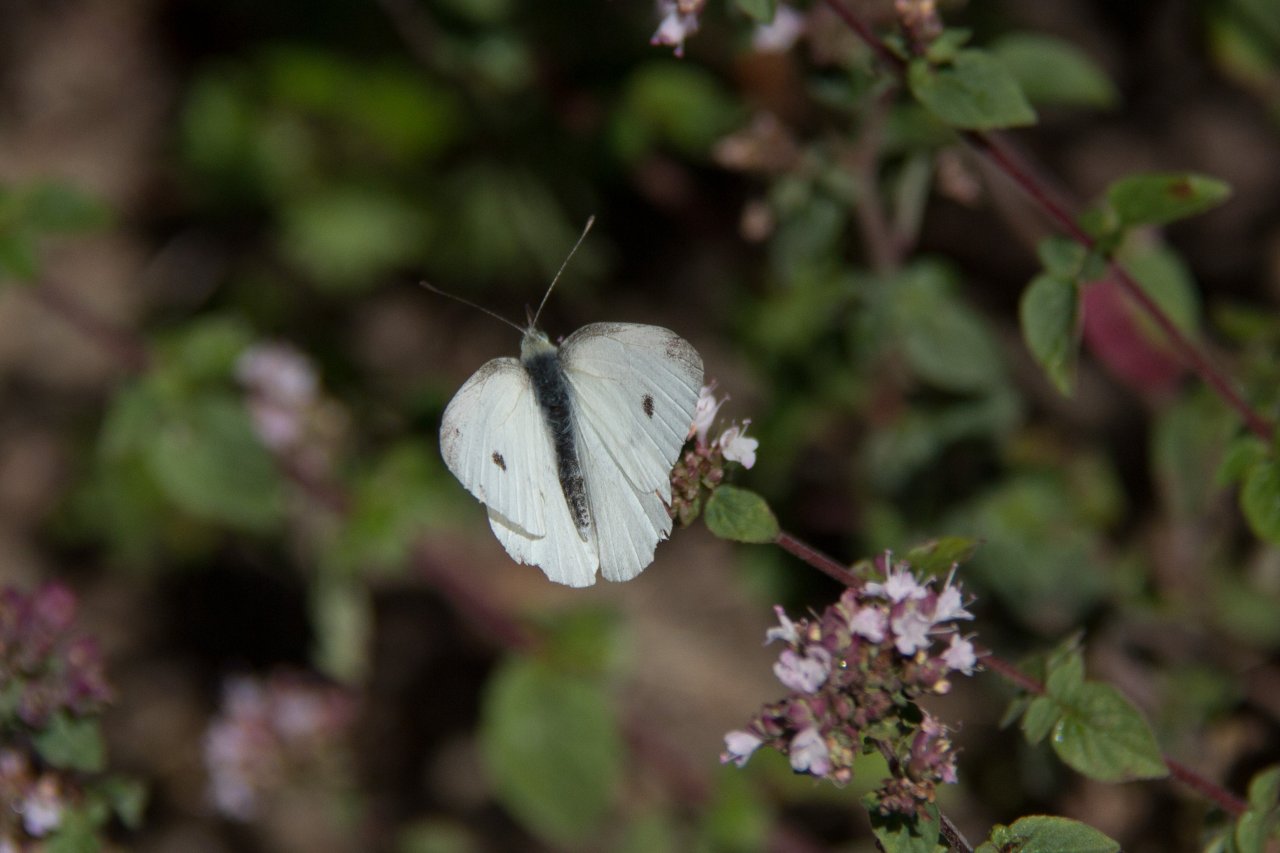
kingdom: Animalia
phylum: Arthropoda
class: Insecta
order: Lepidoptera
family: Pieridae
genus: Pieris
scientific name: Pieris rapae
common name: Cabbage White
